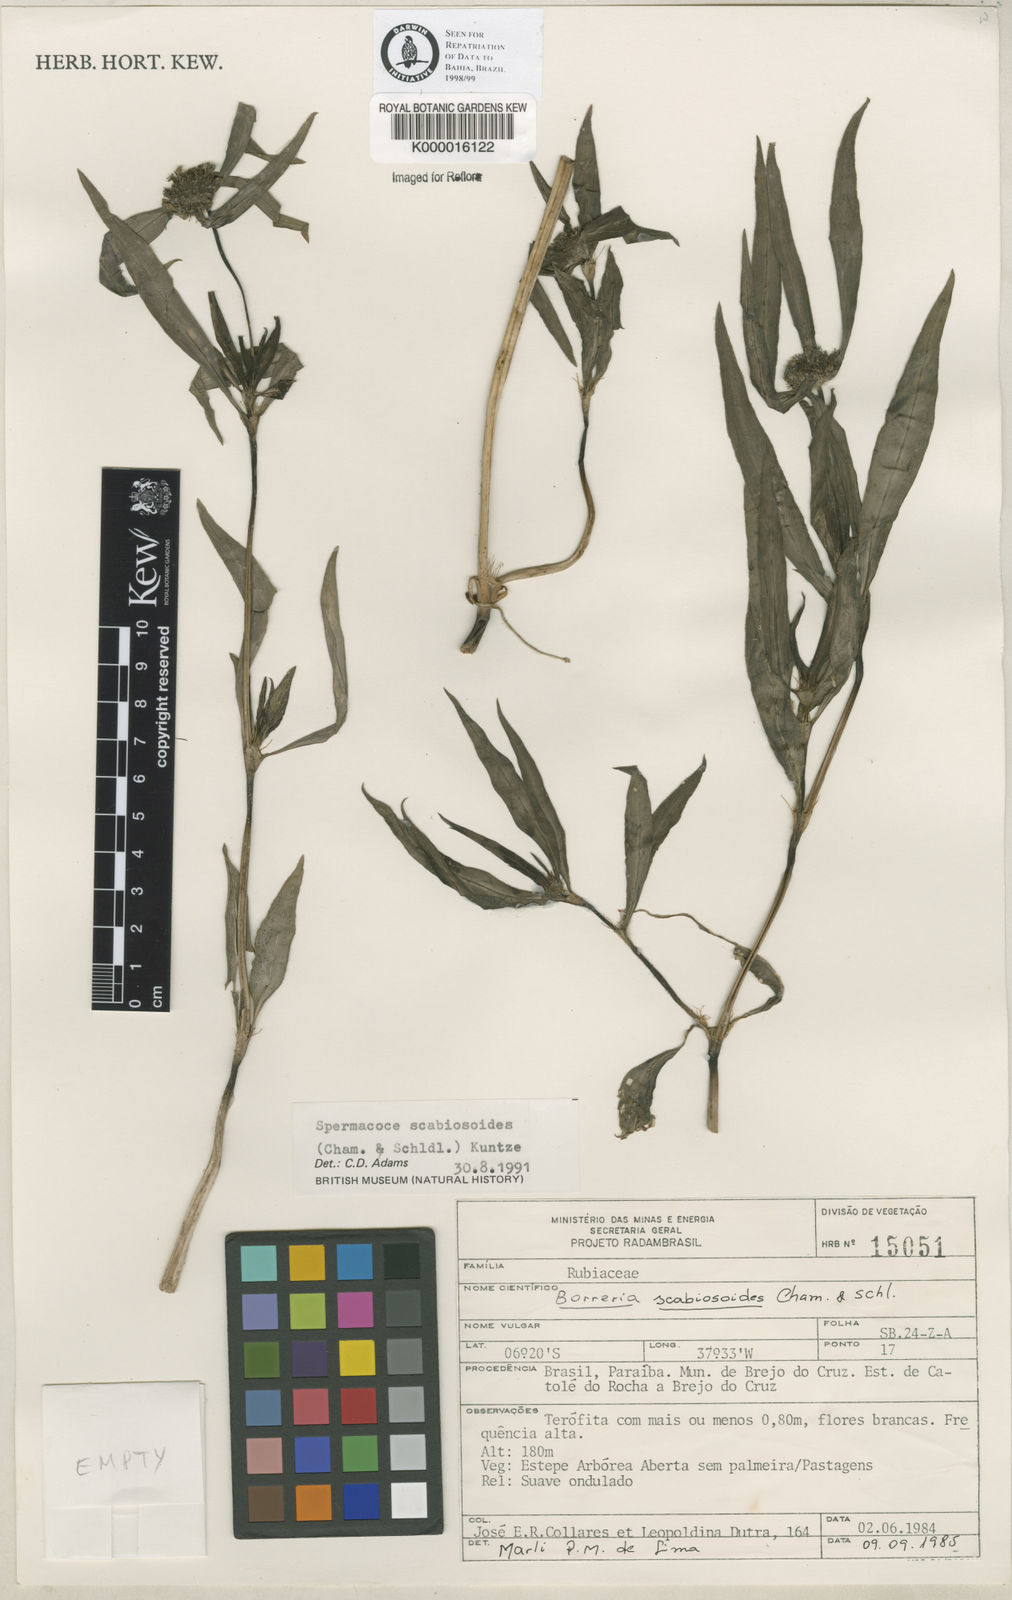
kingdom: Plantae
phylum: Tracheophyta
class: Magnoliopsida
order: Gentianales
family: Rubiaceae
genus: Spermacoce
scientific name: Spermacoce scabiosoides
